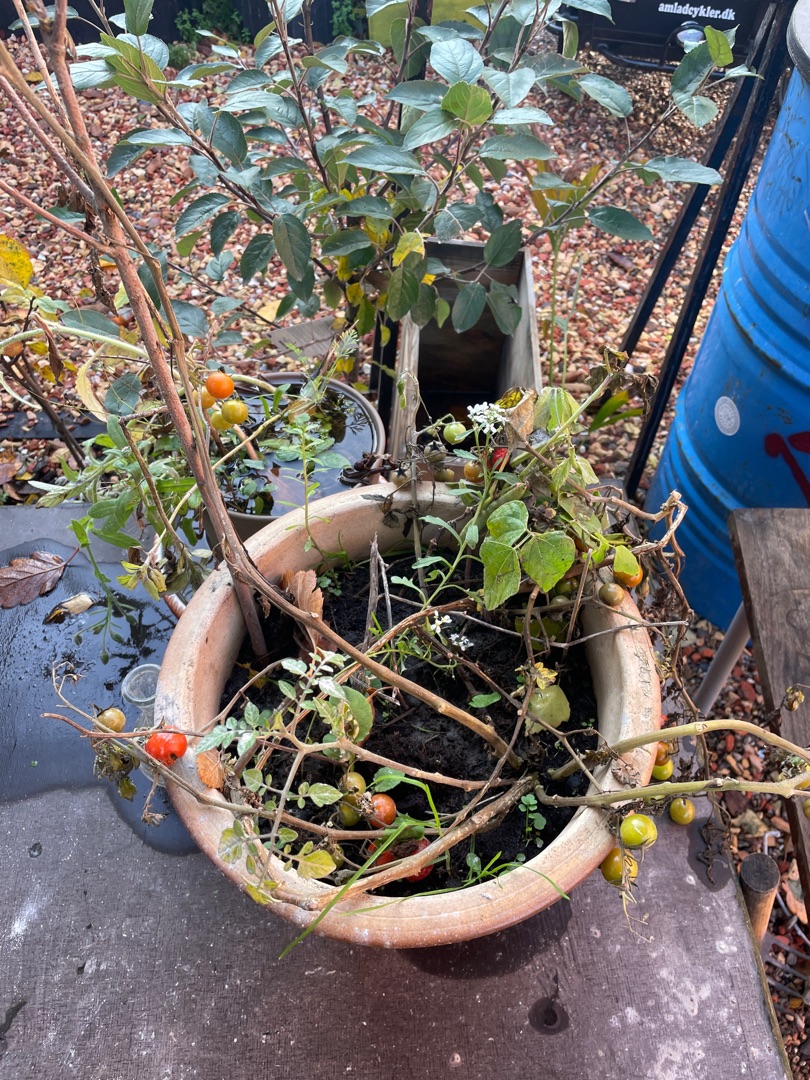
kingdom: Plantae
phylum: Tracheophyta
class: Magnoliopsida
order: Solanales
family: Solanaceae
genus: Solanum
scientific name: Solanum lycopersicum
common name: Tomat
